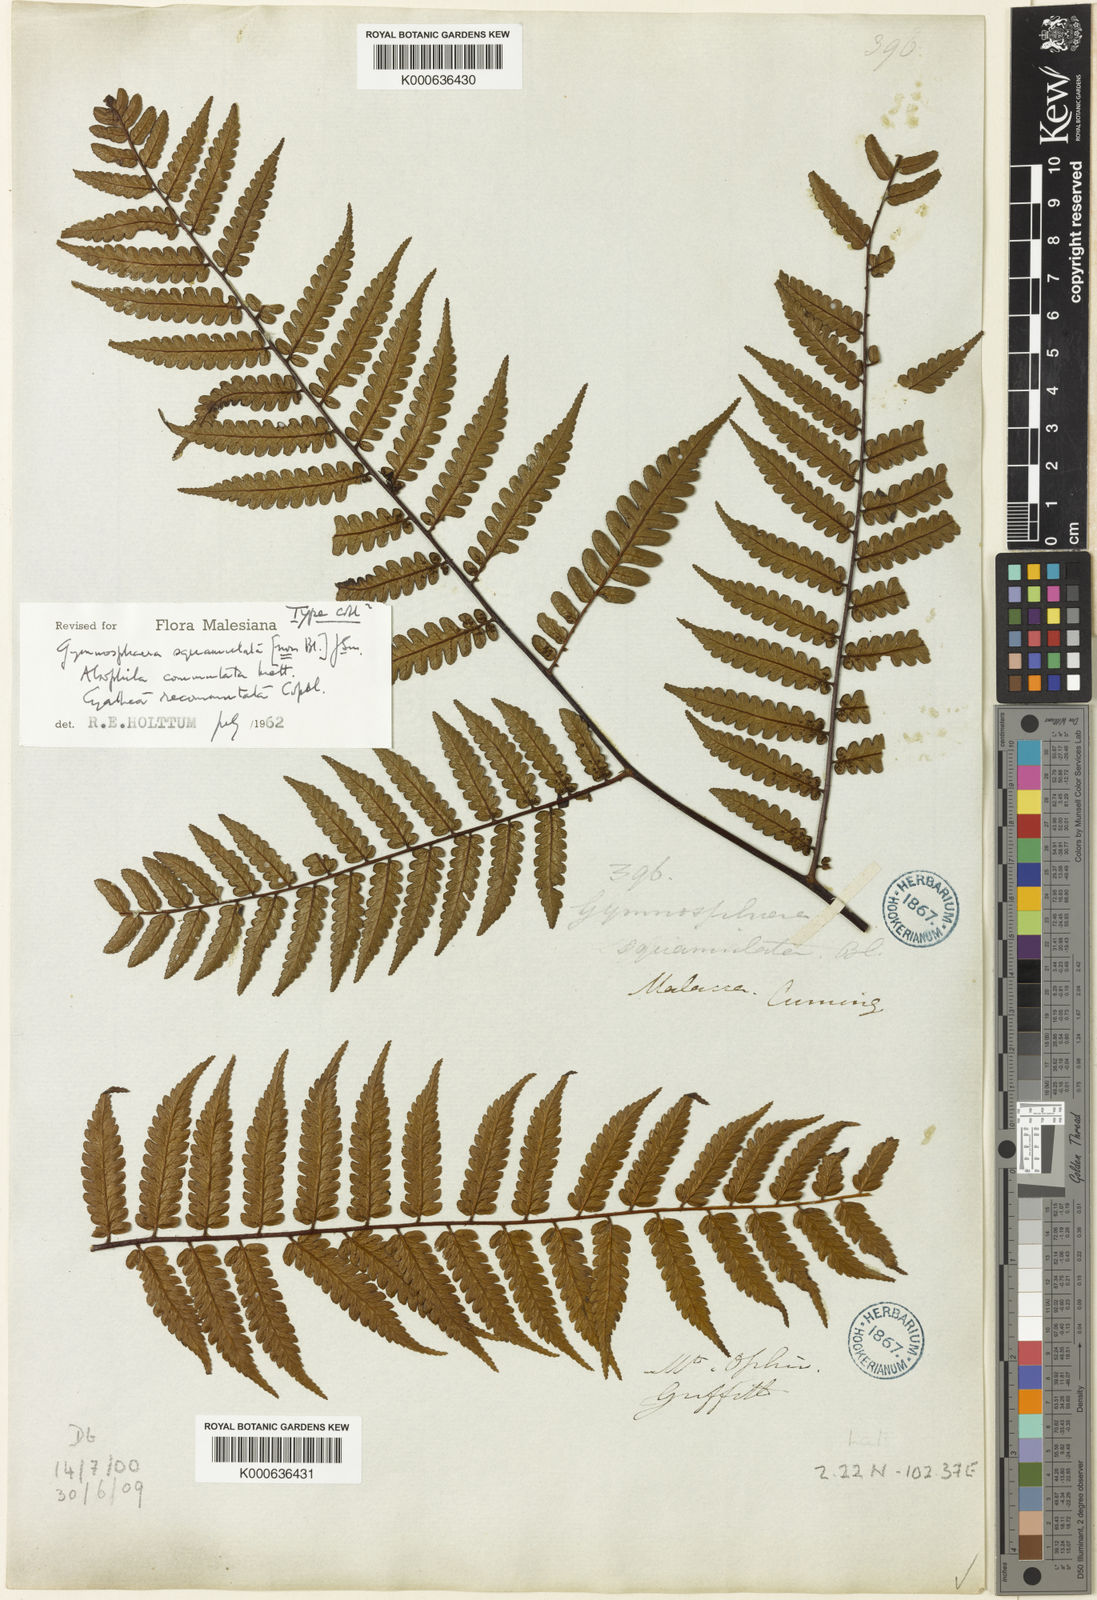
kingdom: Plantae
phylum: Tracheophyta
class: Polypodiopsida
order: Cyatheales
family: Cyatheaceae
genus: Gymnosphaera
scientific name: Gymnosphaera commutata
